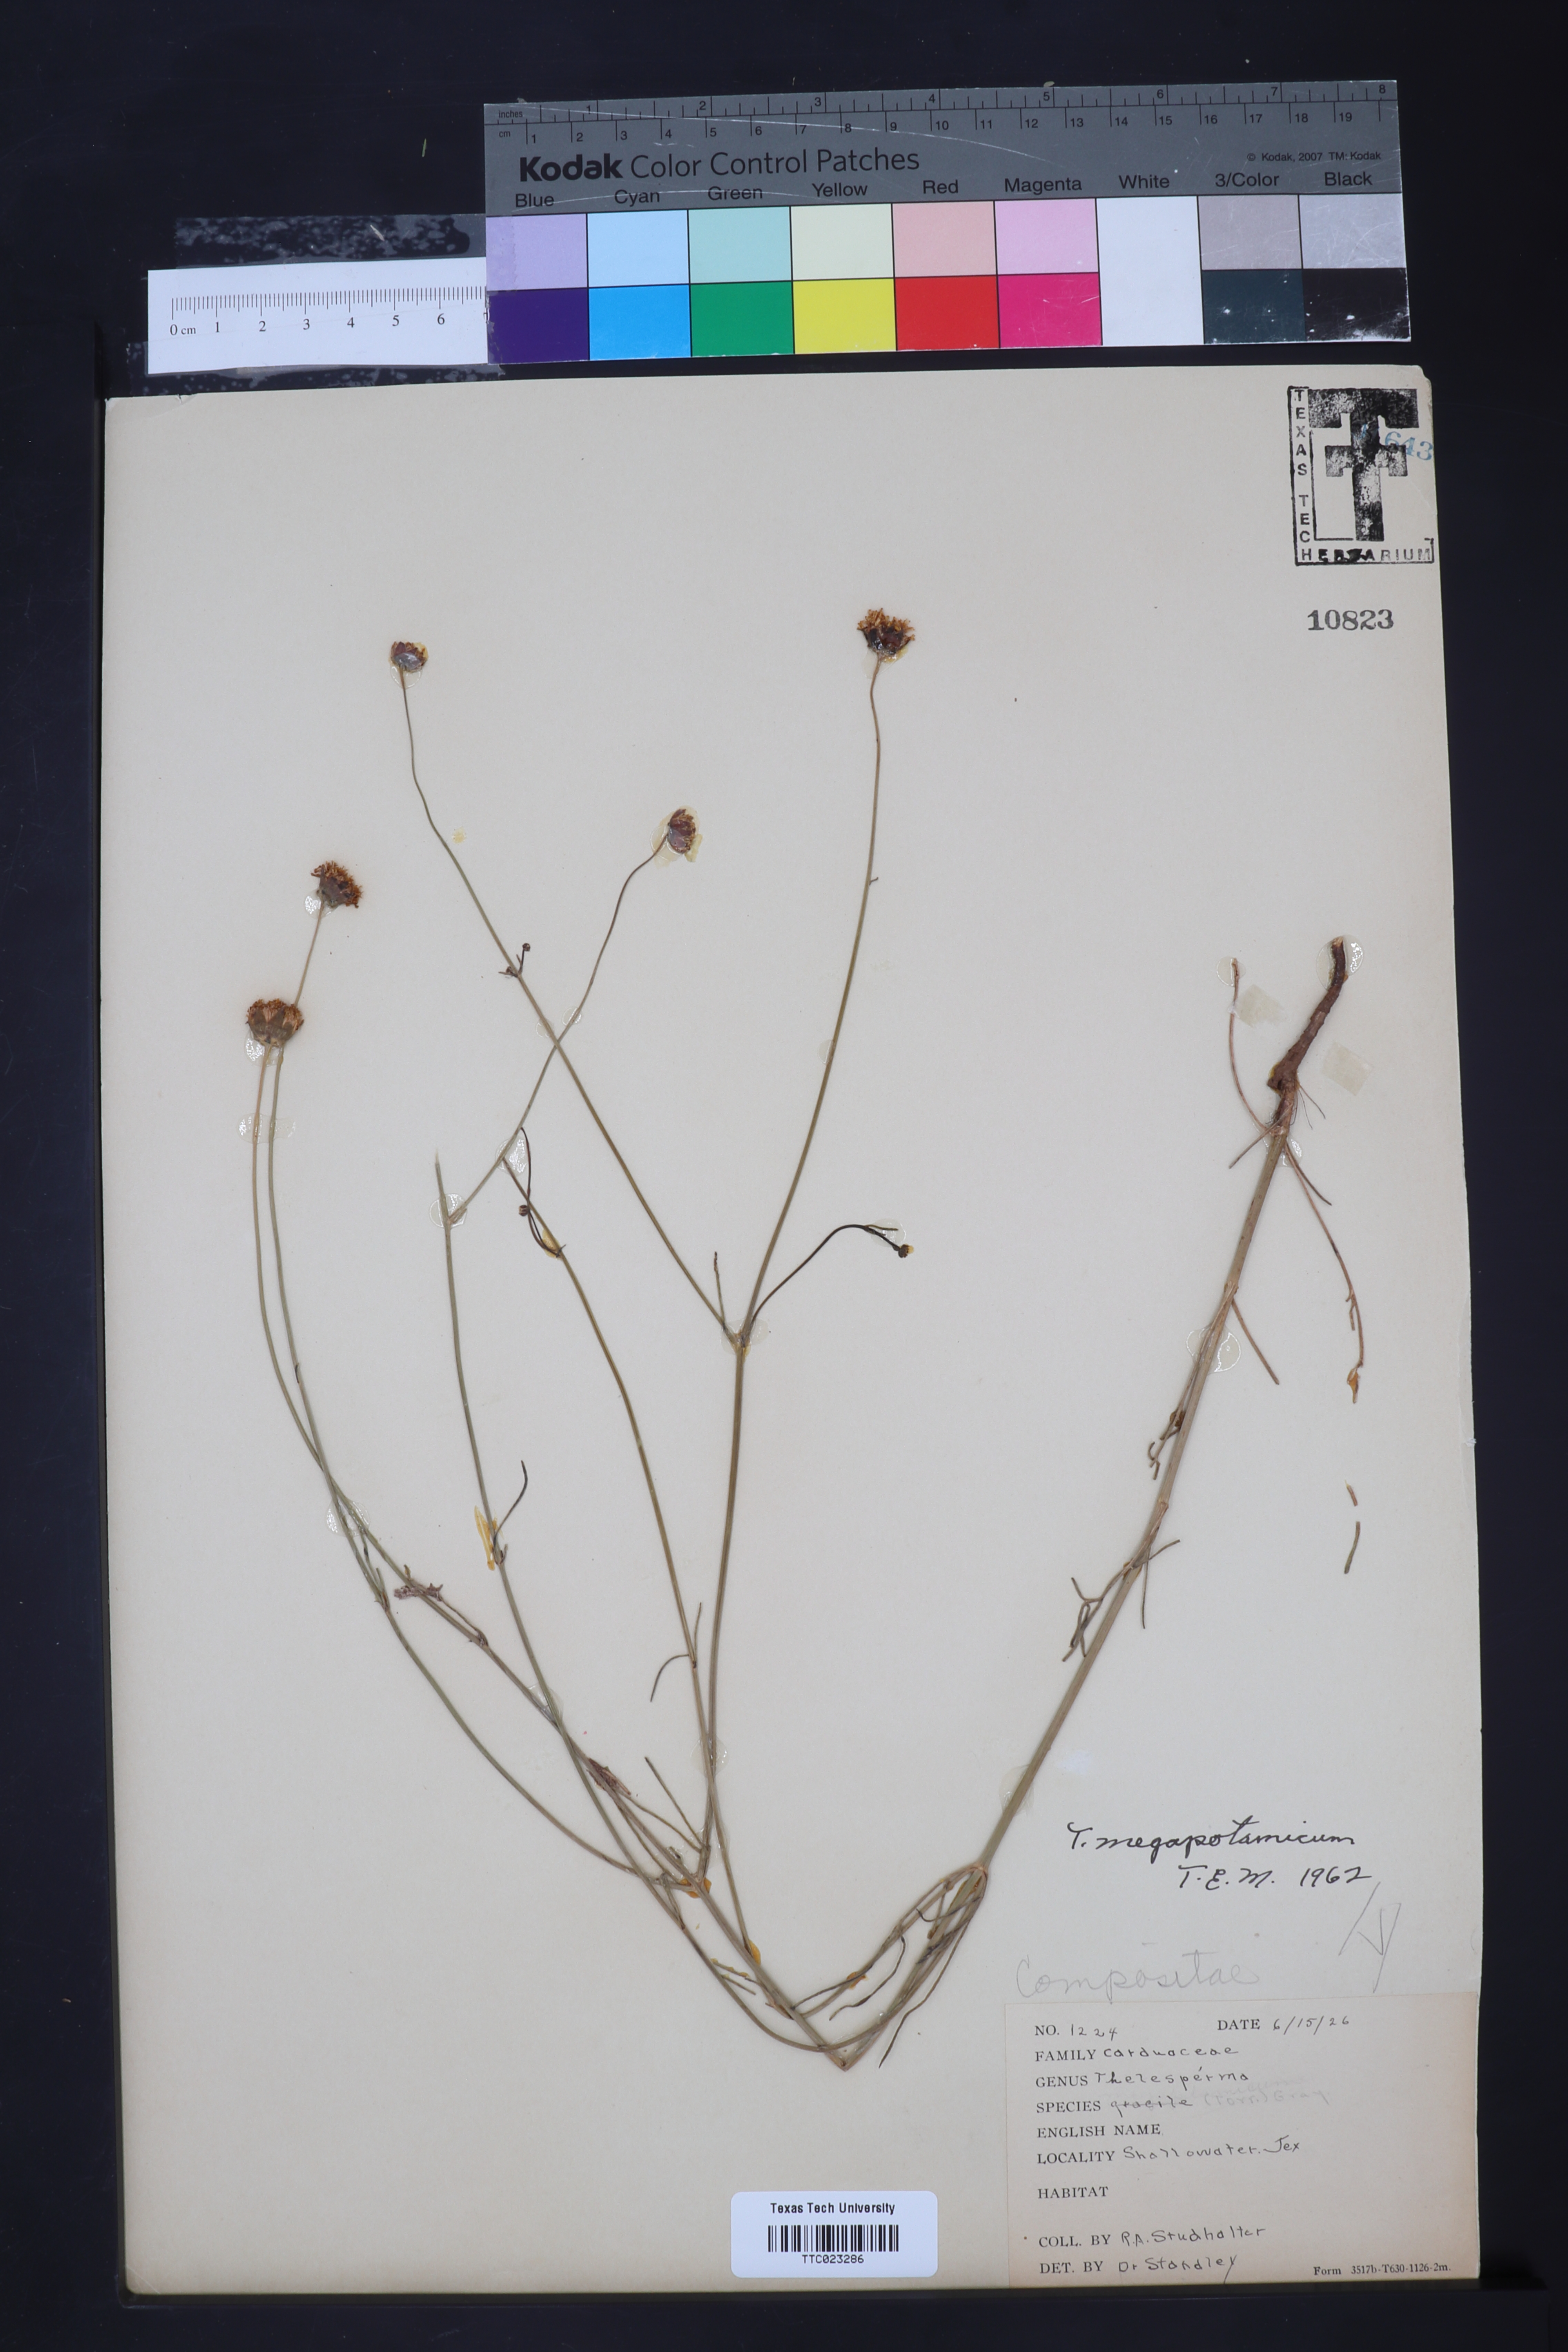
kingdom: Plantae
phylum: Tracheophyta
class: Magnoliopsida
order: Asterales
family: Asteraceae
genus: Thelesperma
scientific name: Thelesperma megapotamicum
